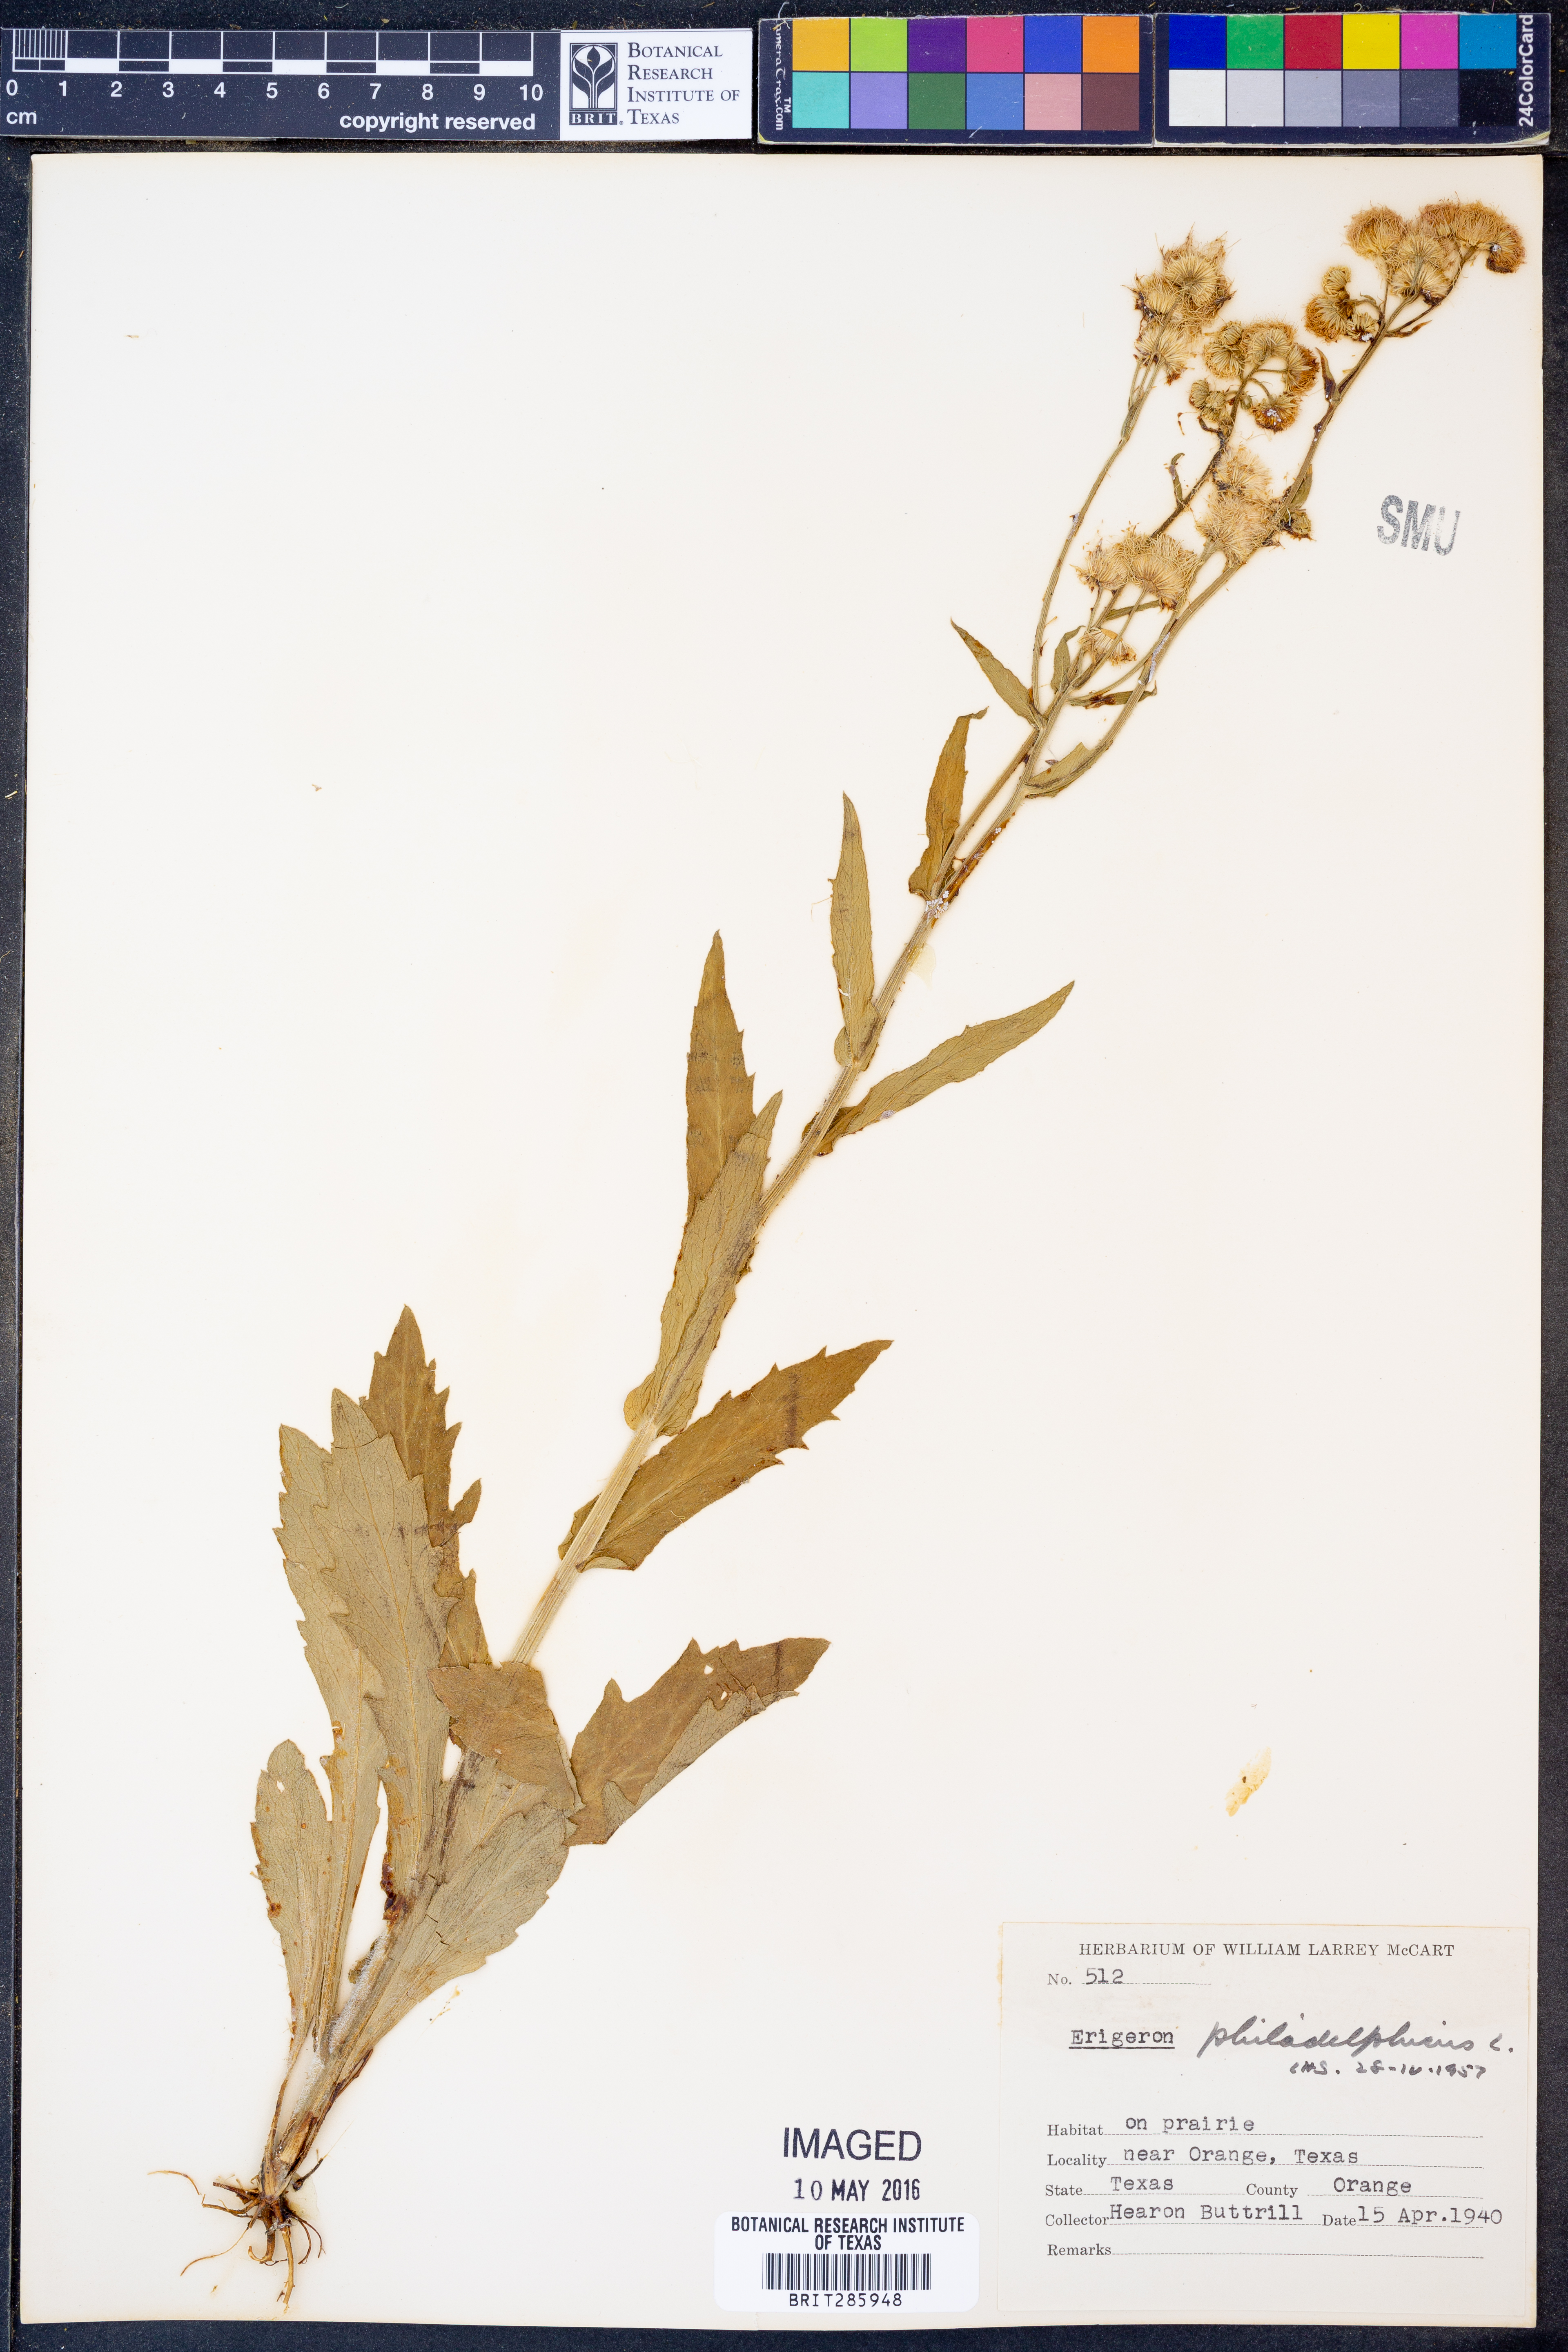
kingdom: Plantae
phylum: Tracheophyta
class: Magnoliopsida
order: Asterales
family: Asteraceae
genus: Erigeron
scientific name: Erigeron philadelphicus
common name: Robin's-plantain
